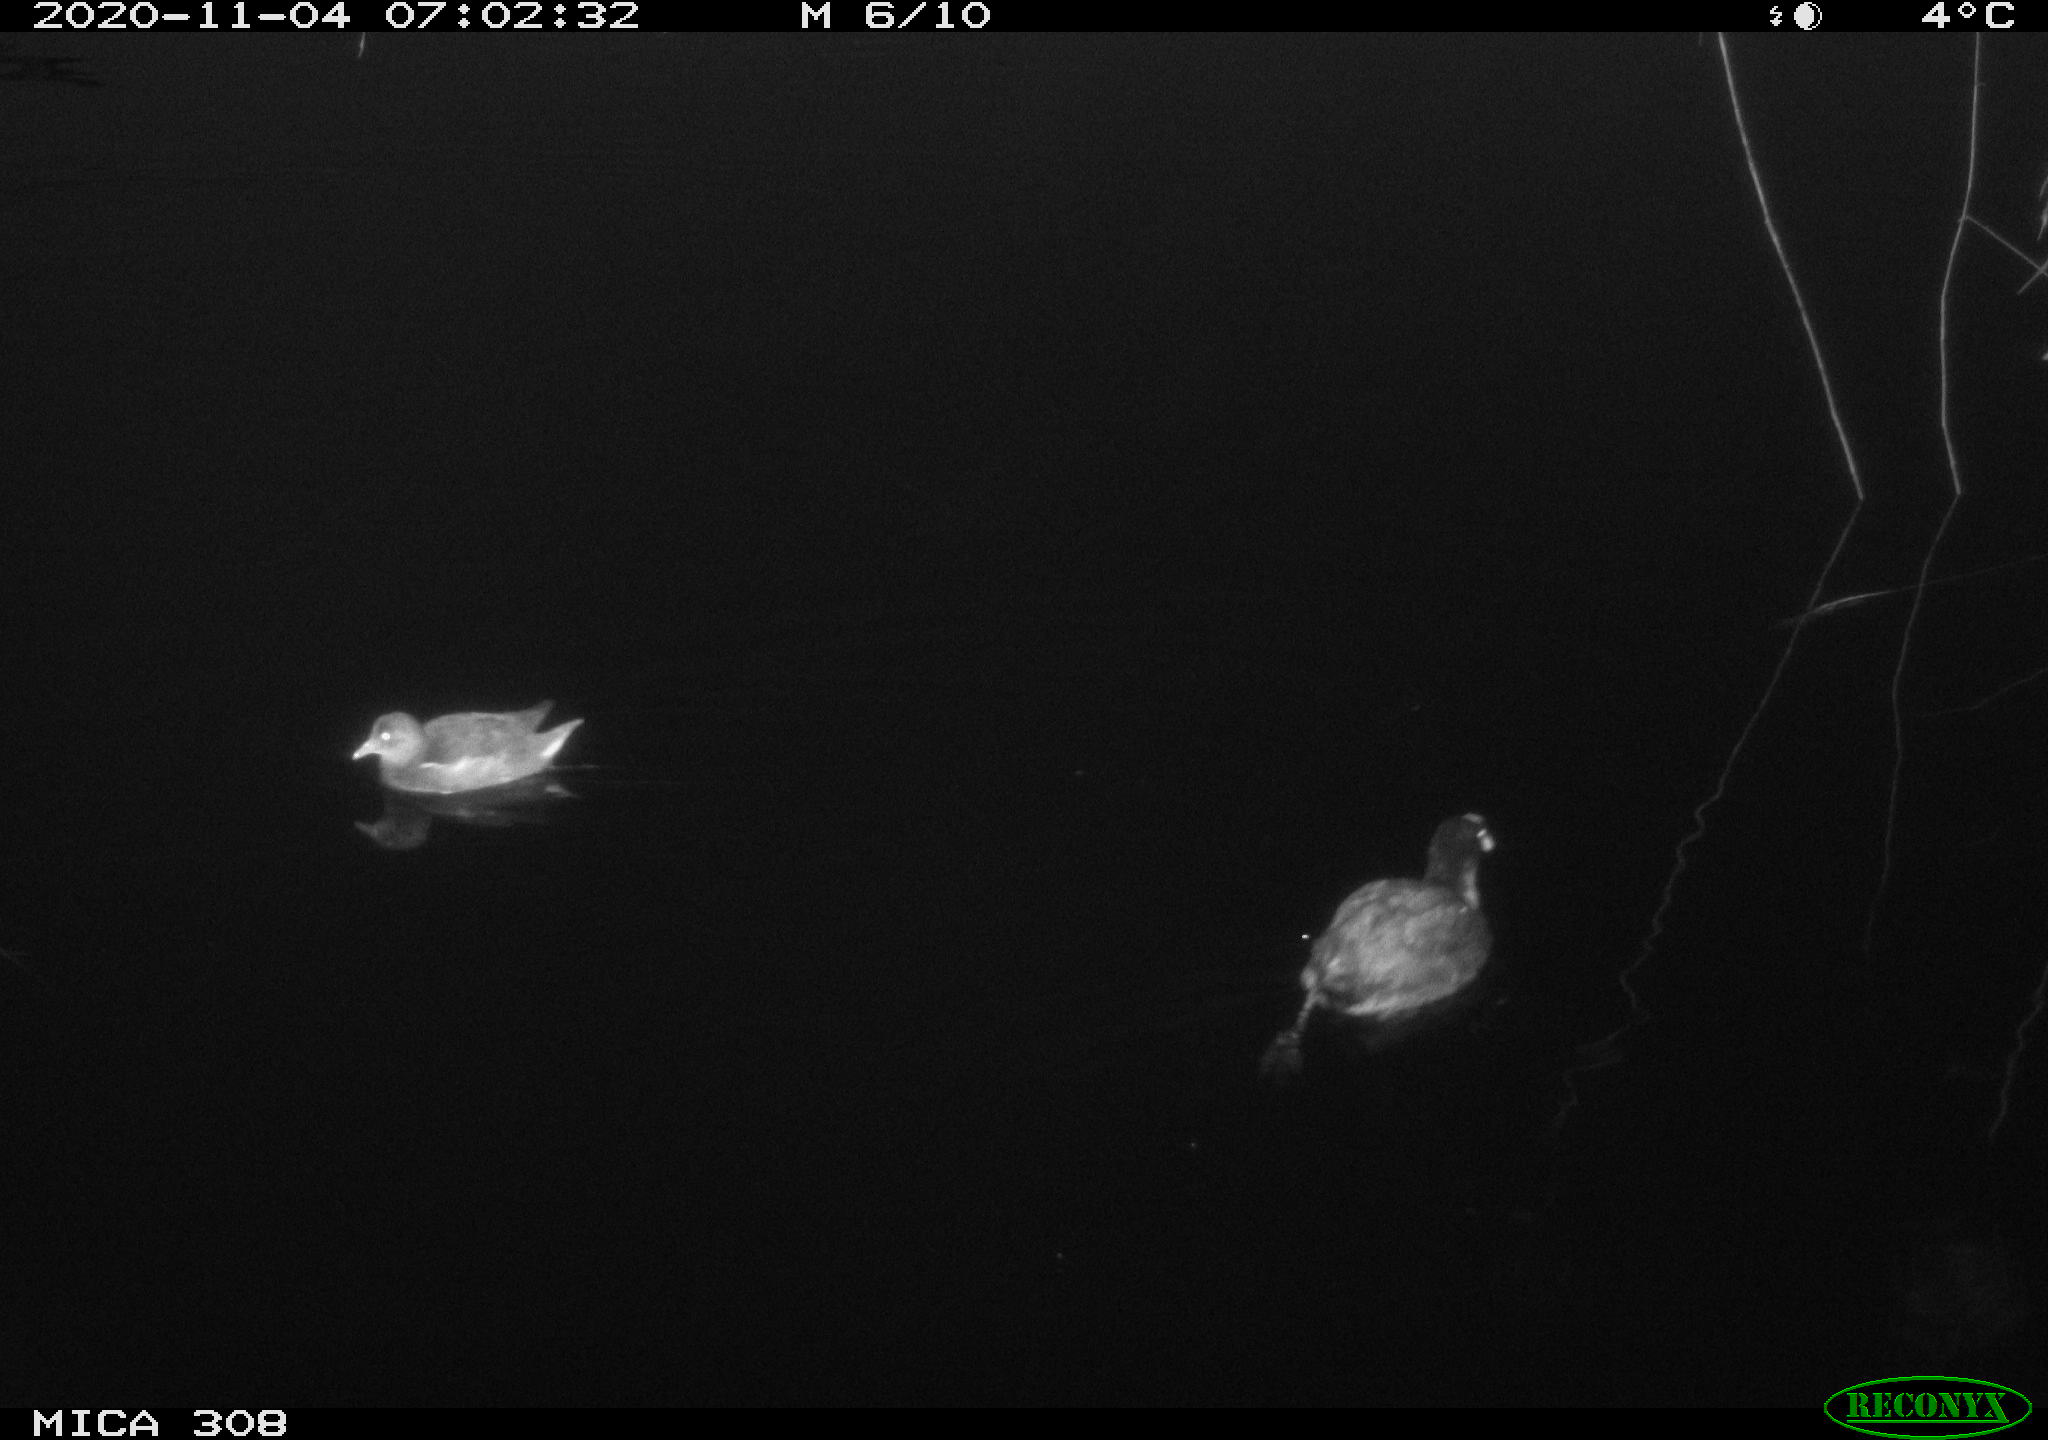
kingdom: Animalia
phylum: Chordata
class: Aves
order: Gruiformes
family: Rallidae
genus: Gallinula
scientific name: Gallinula chloropus
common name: Common moorhen
